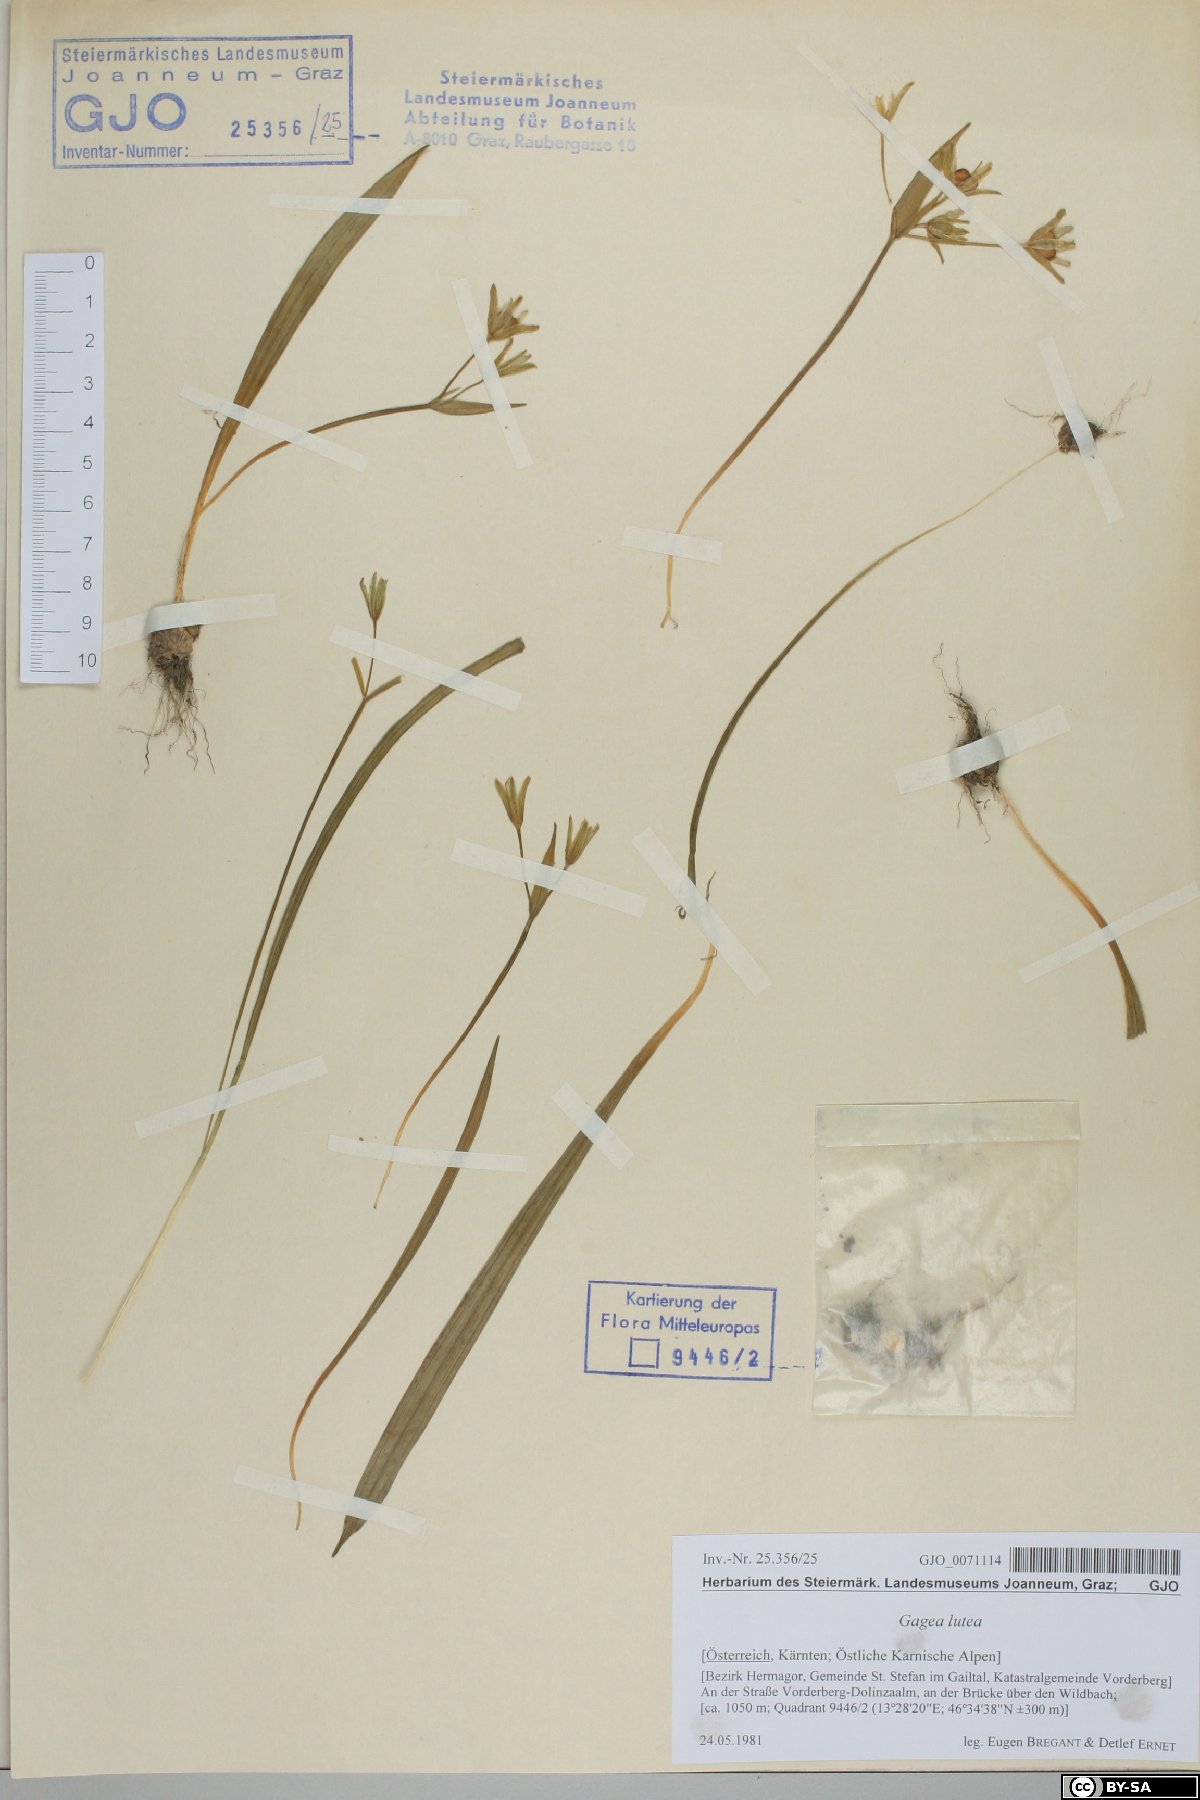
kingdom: Plantae
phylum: Tracheophyta
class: Liliopsida
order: Liliales
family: Liliaceae
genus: Gagea
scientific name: Gagea lutea
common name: Yellow star-of-bethlehem
